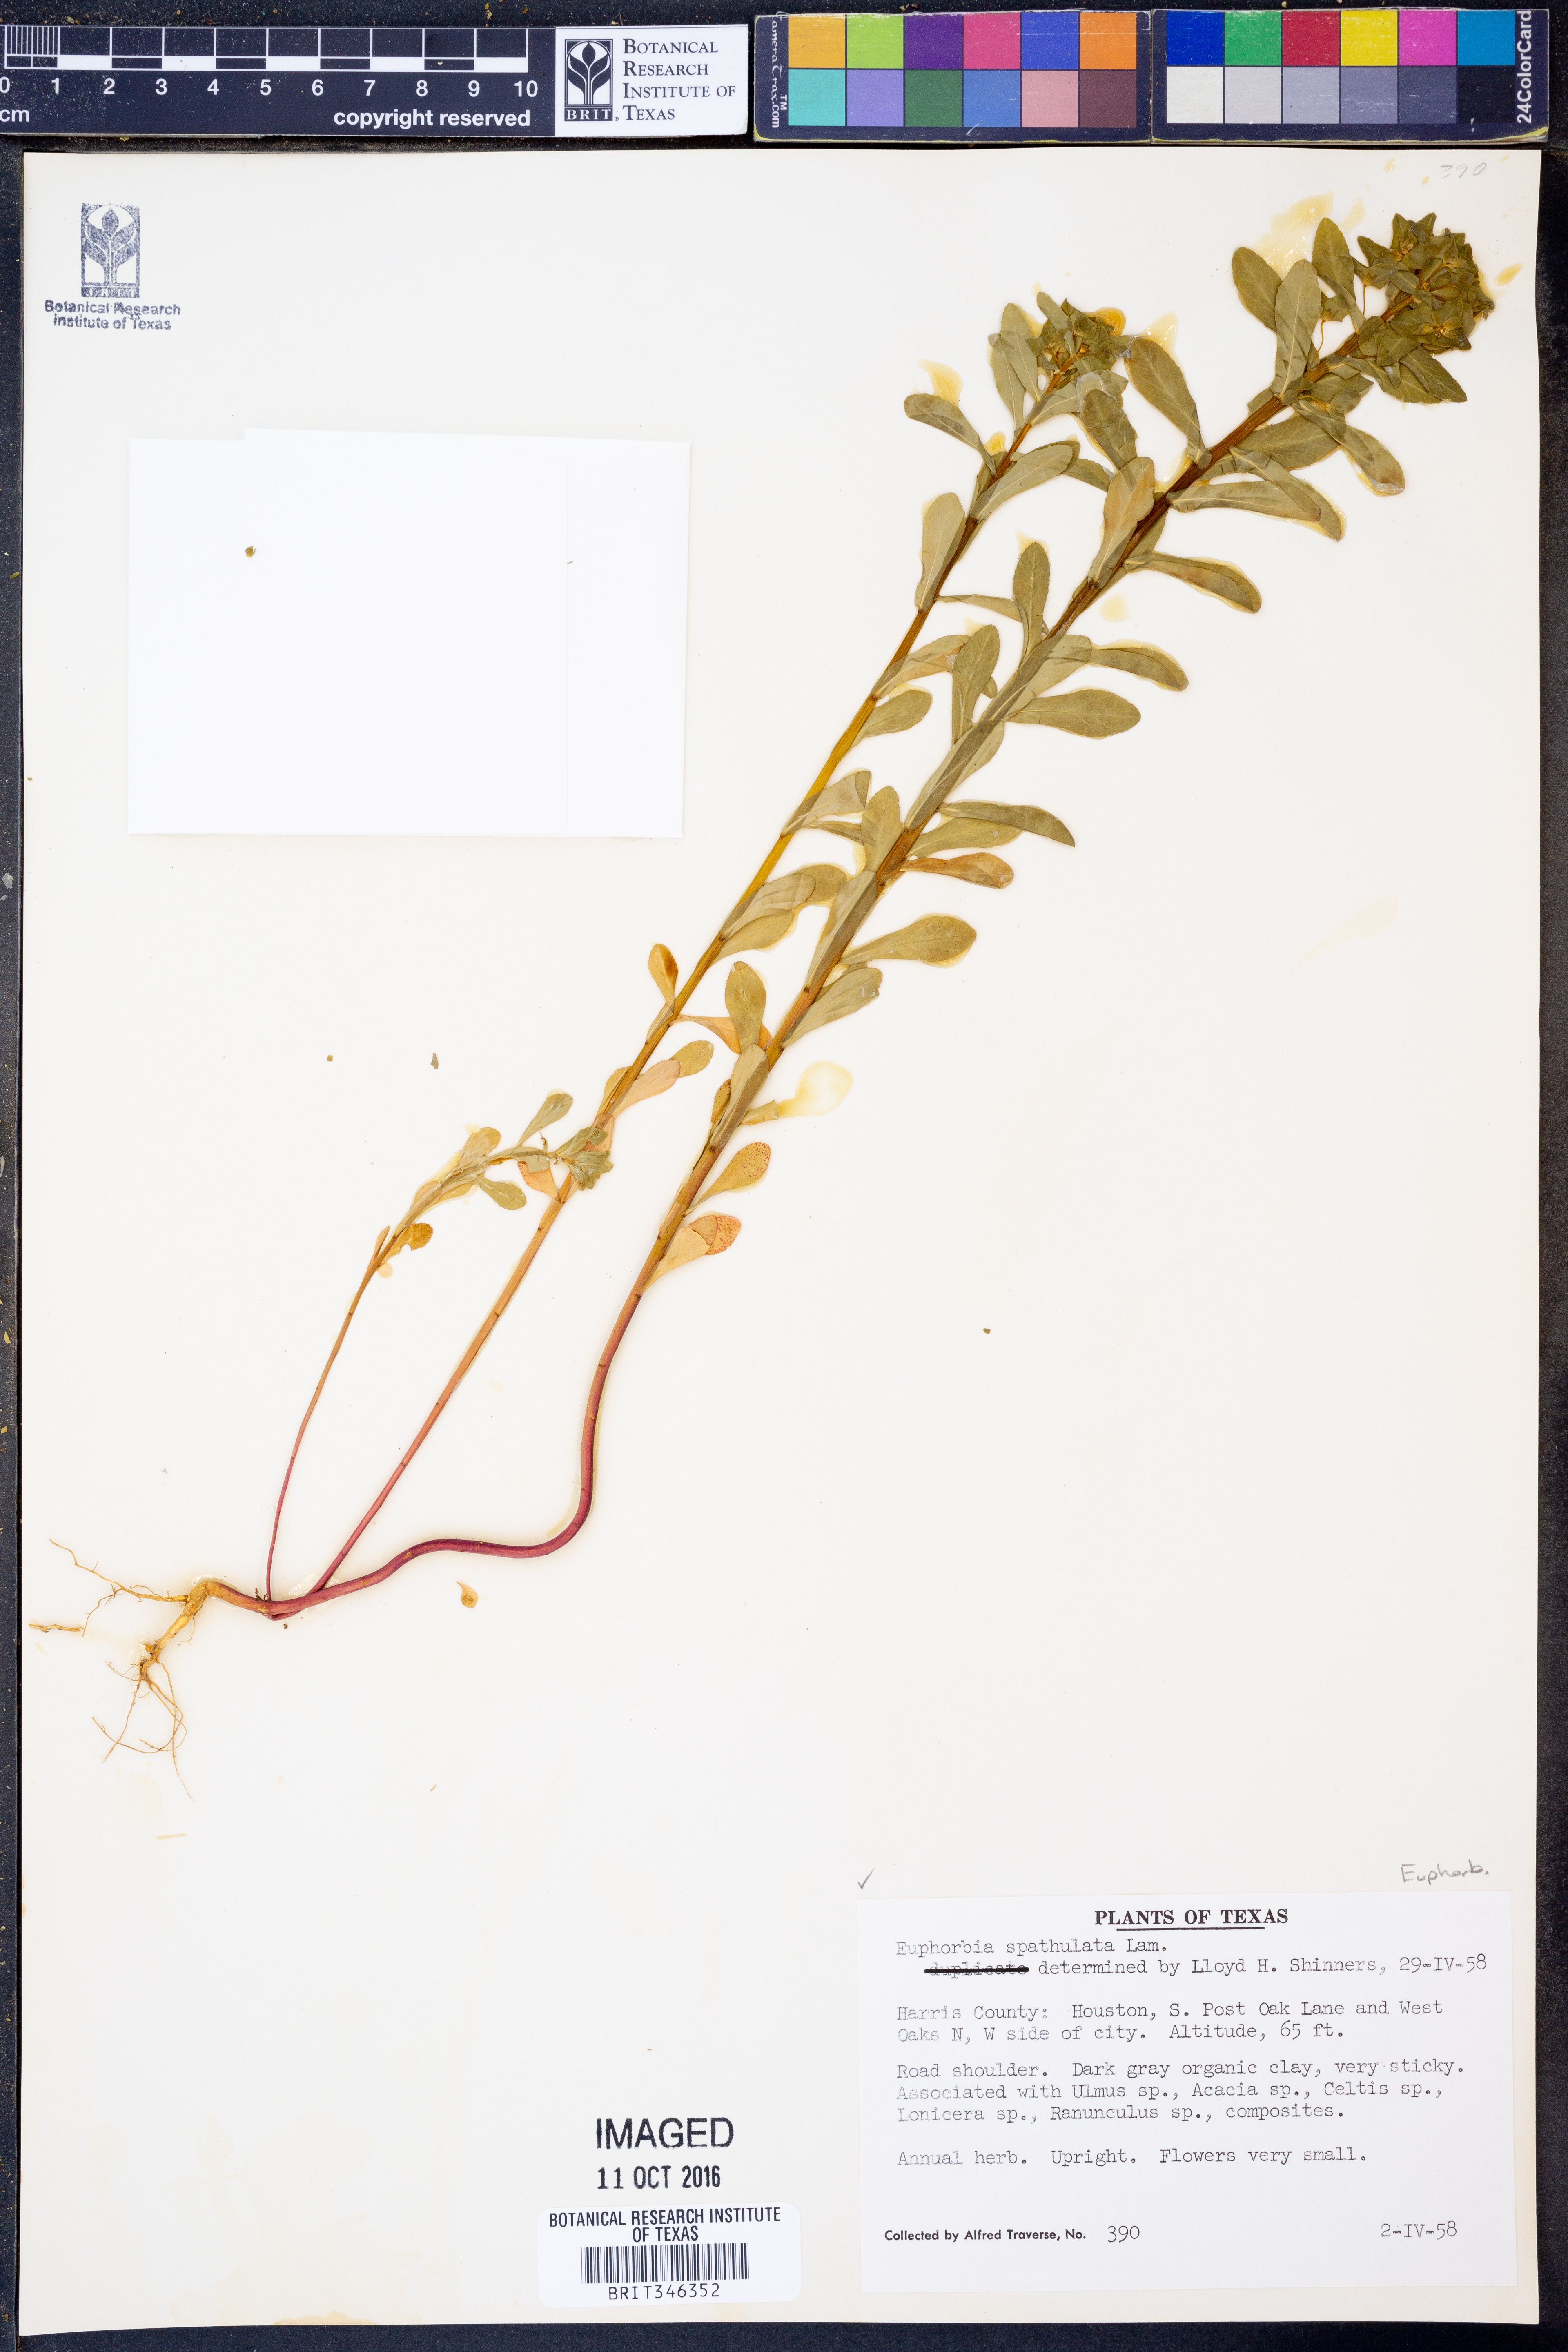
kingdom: Plantae
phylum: Tracheophyta
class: Magnoliopsida
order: Malpighiales
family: Euphorbiaceae
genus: Euphorbia
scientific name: Euphorbia spathulata
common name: Blunt spurge
